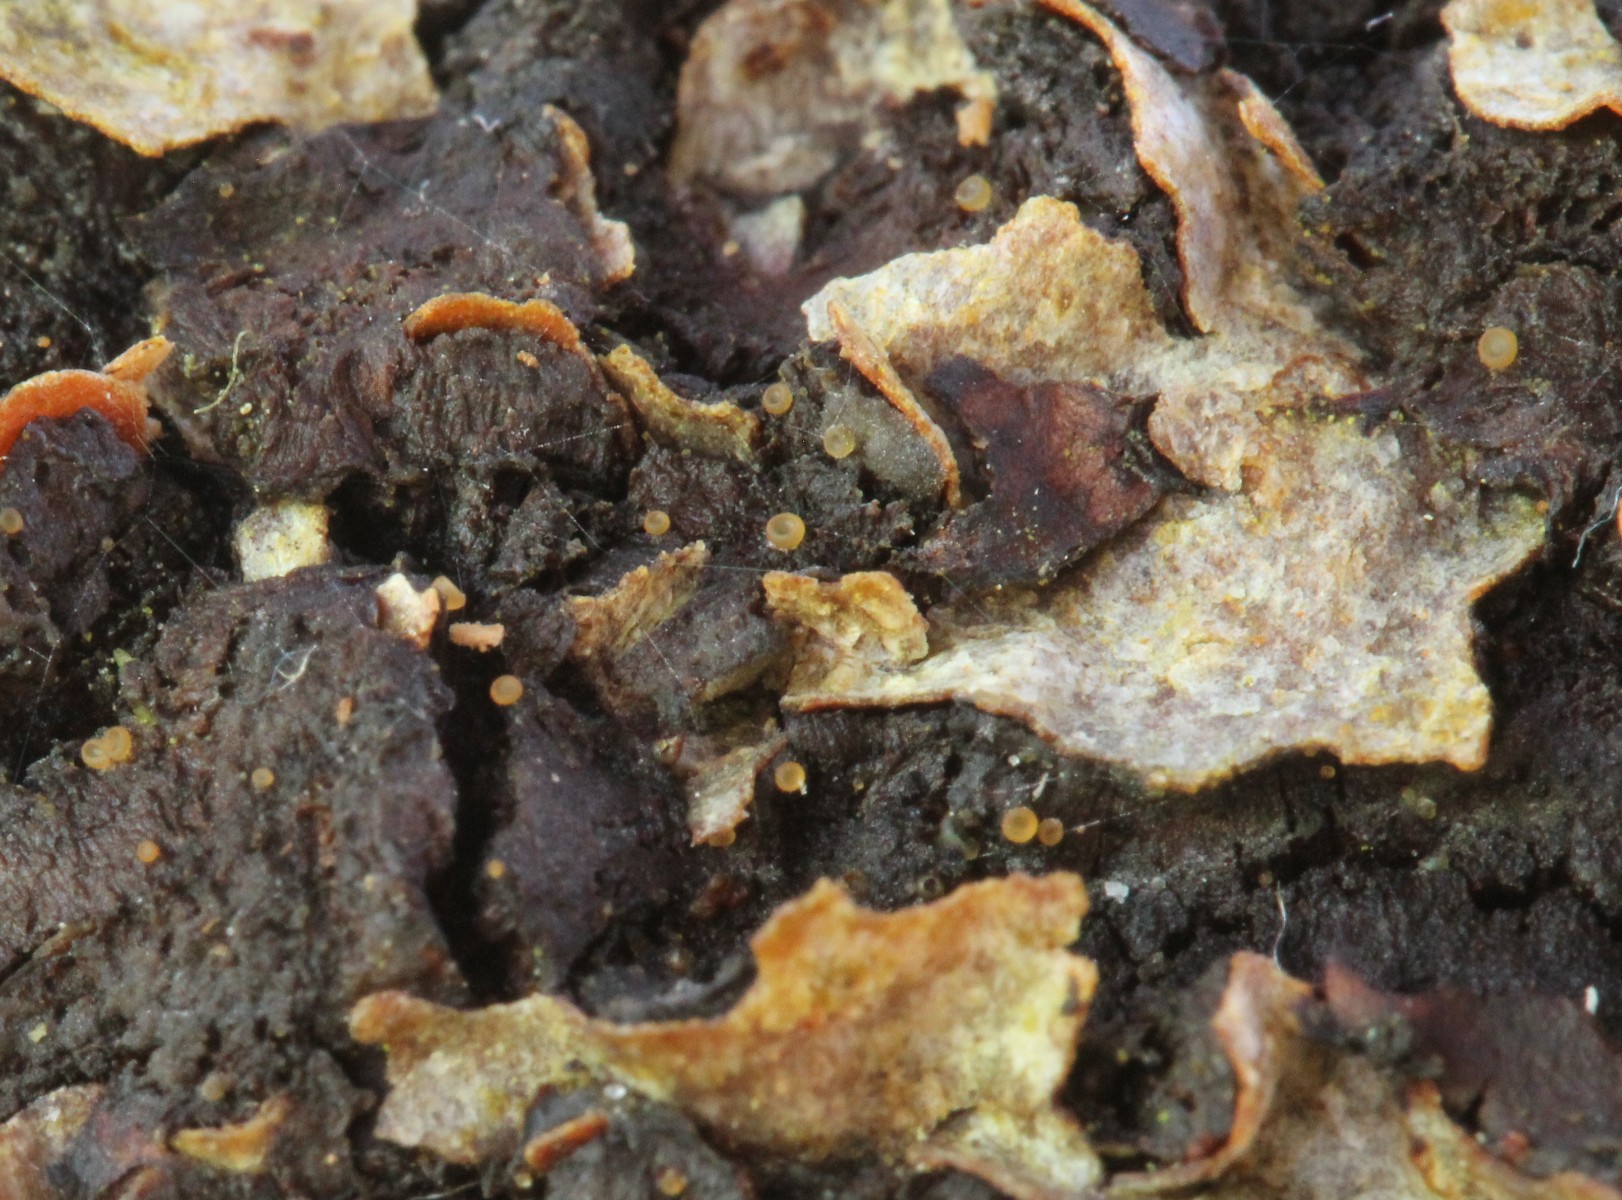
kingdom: Fungi
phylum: Ascomycota
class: Orbiliomycetes
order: Orbiliales
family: Orbiliaceae
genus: Hyalorbilia
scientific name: Hyalorbilia
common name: voksskive
